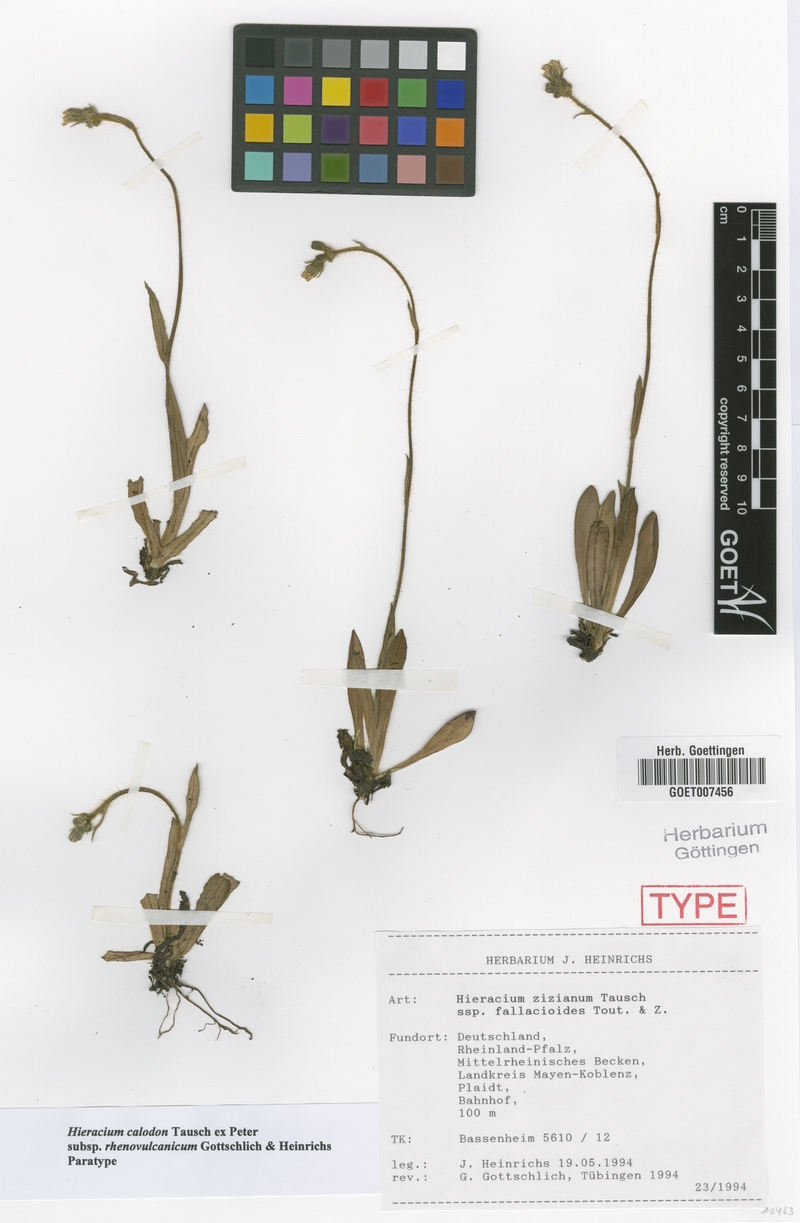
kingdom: Plantae
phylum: Tracheophyta
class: Magnoliopsida
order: Asterales
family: Asteraceae
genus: Pilosella
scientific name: Pilosella calodon
